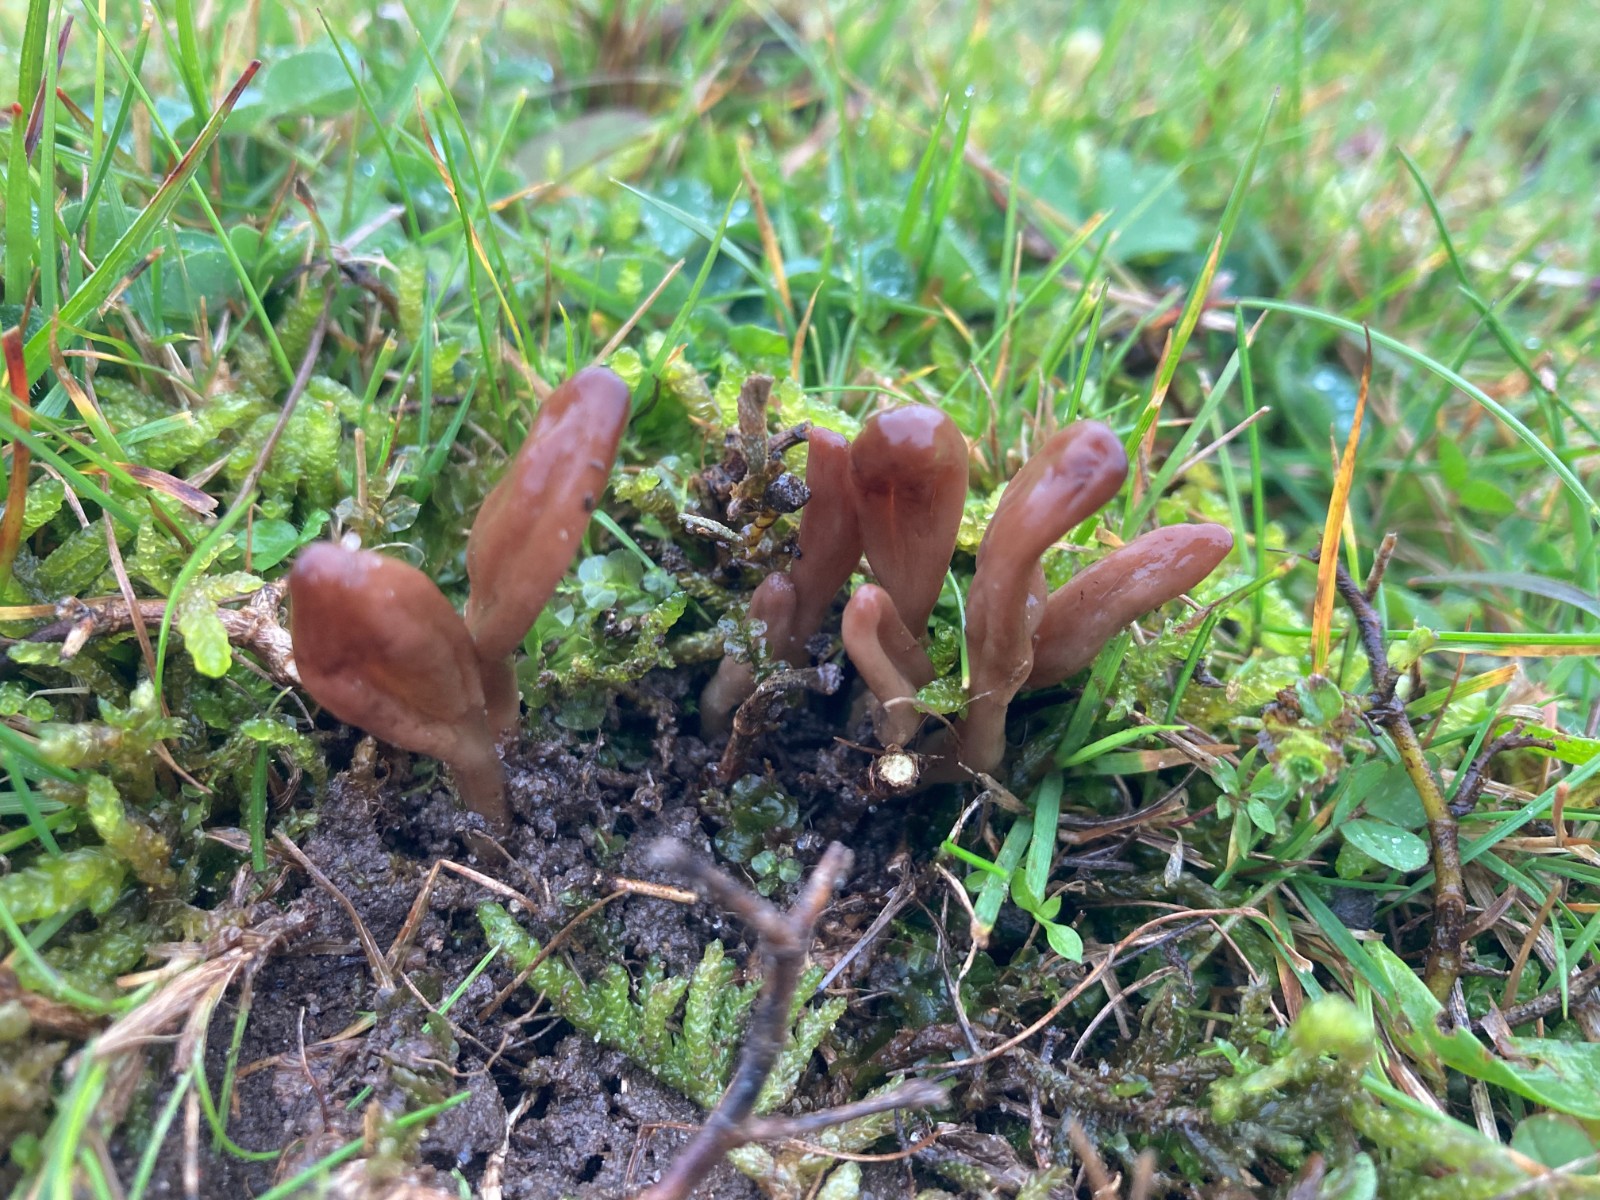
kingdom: Fungi
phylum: Ascomycota
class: Leotiomycetes
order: Leotiales
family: Leotiaceae
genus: Microglossum
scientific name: Microglossum olivaceum
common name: olivenbrun farvetunge
